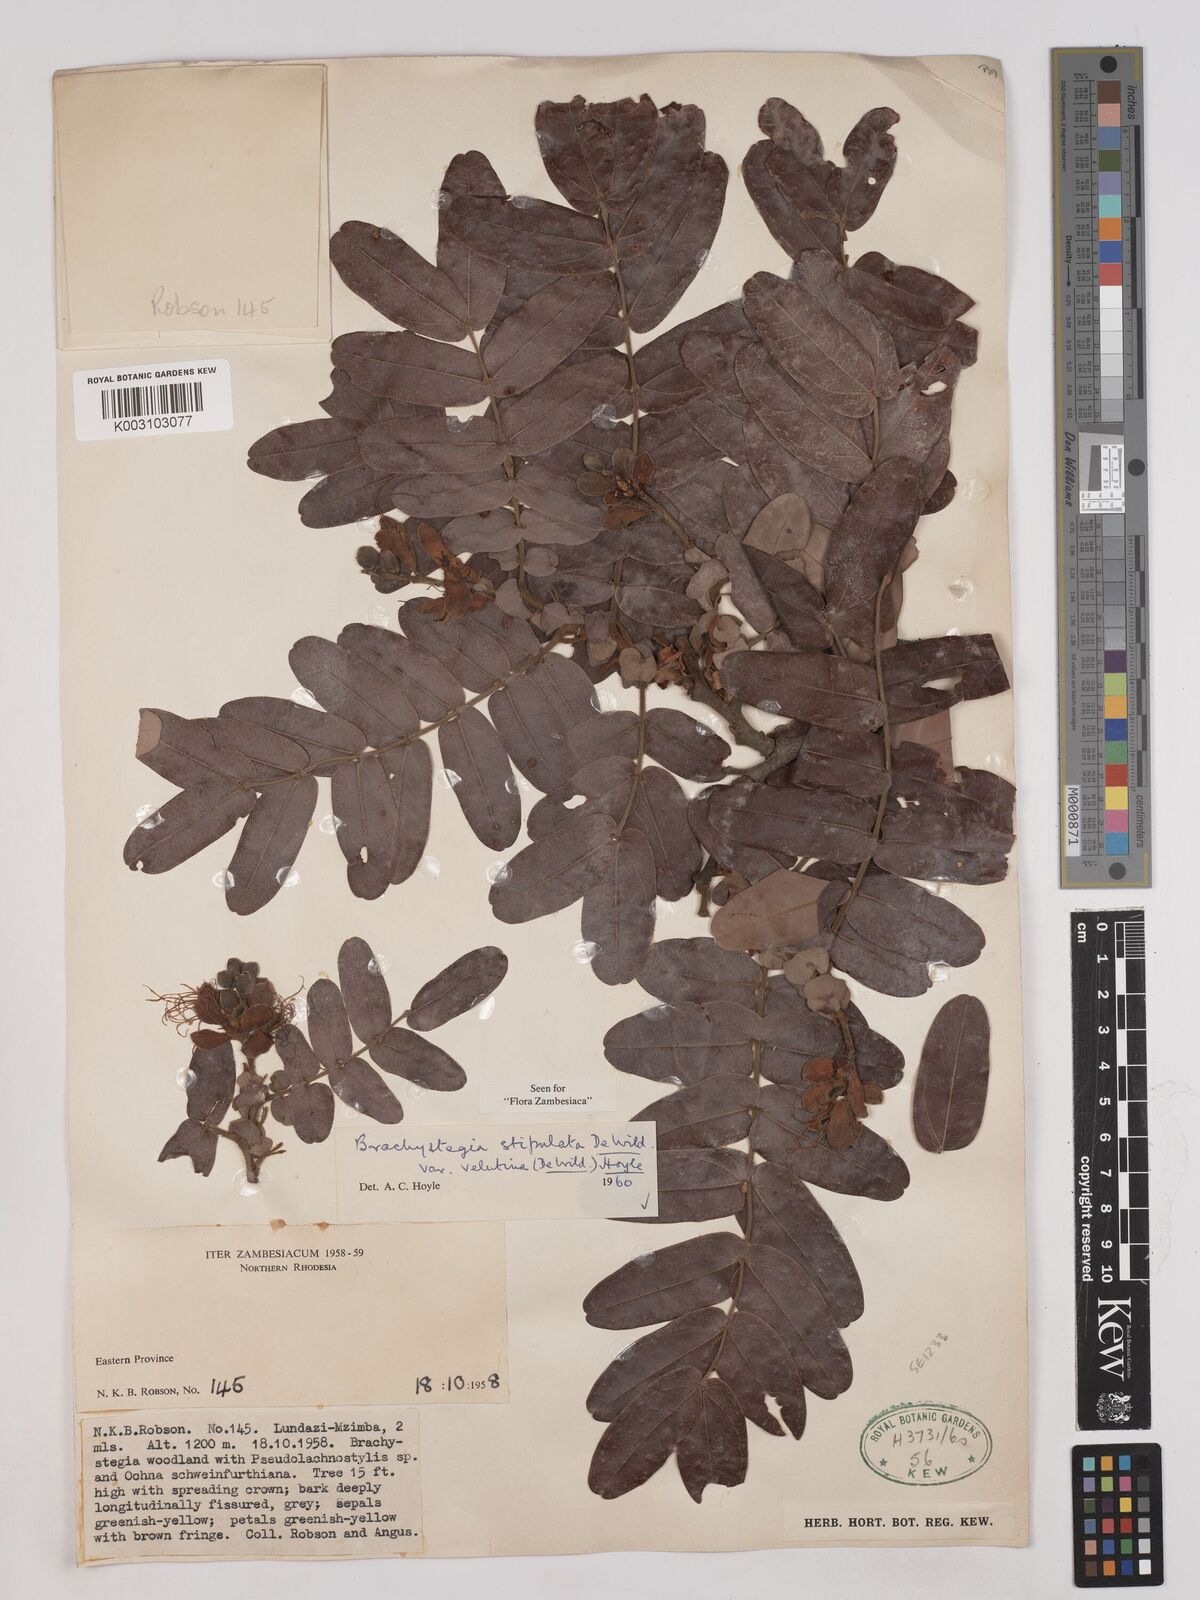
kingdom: Plantae
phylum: Tracheophyta
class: Magnoliopsida
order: Fabales
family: Fabaceae
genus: Brachystegia
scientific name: Brachystegia stipulata
